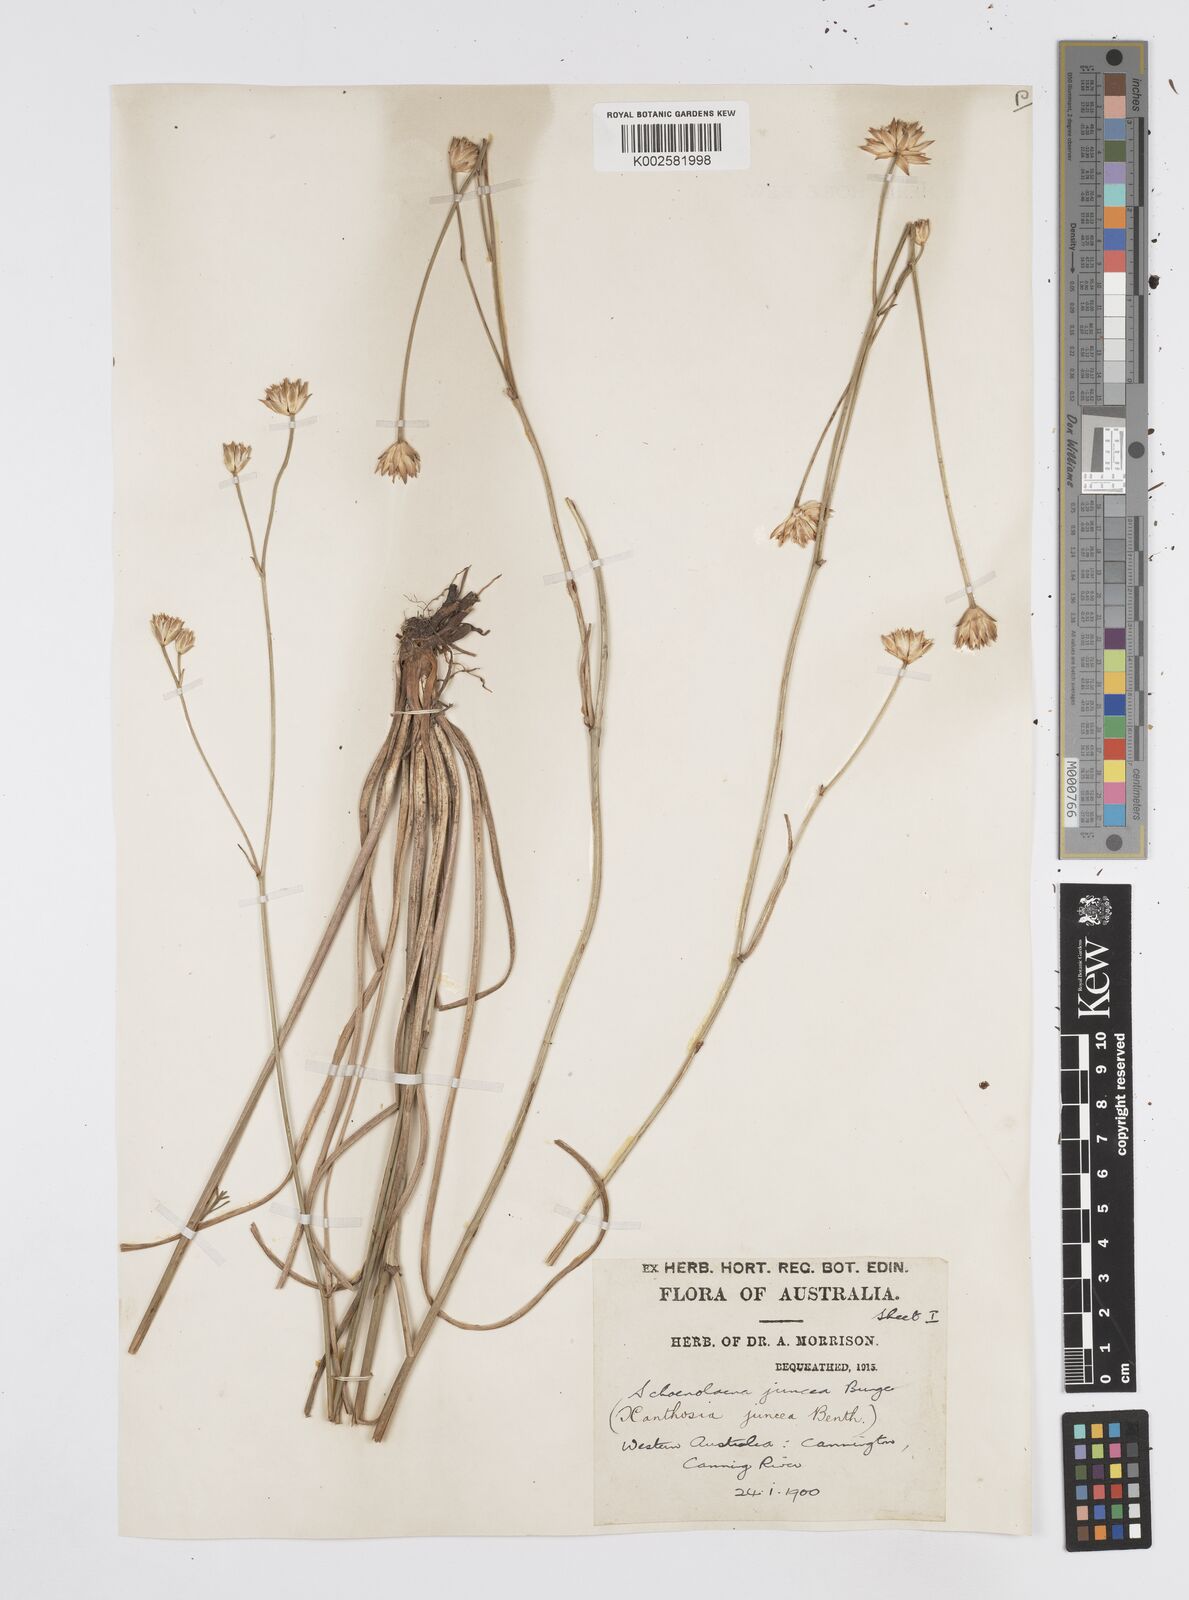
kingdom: Plantae
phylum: Tracheophyta
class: Magnoliopsida
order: Apiales
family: Apiaceae
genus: Schoenolaena
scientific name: Schoenolaena juncea
